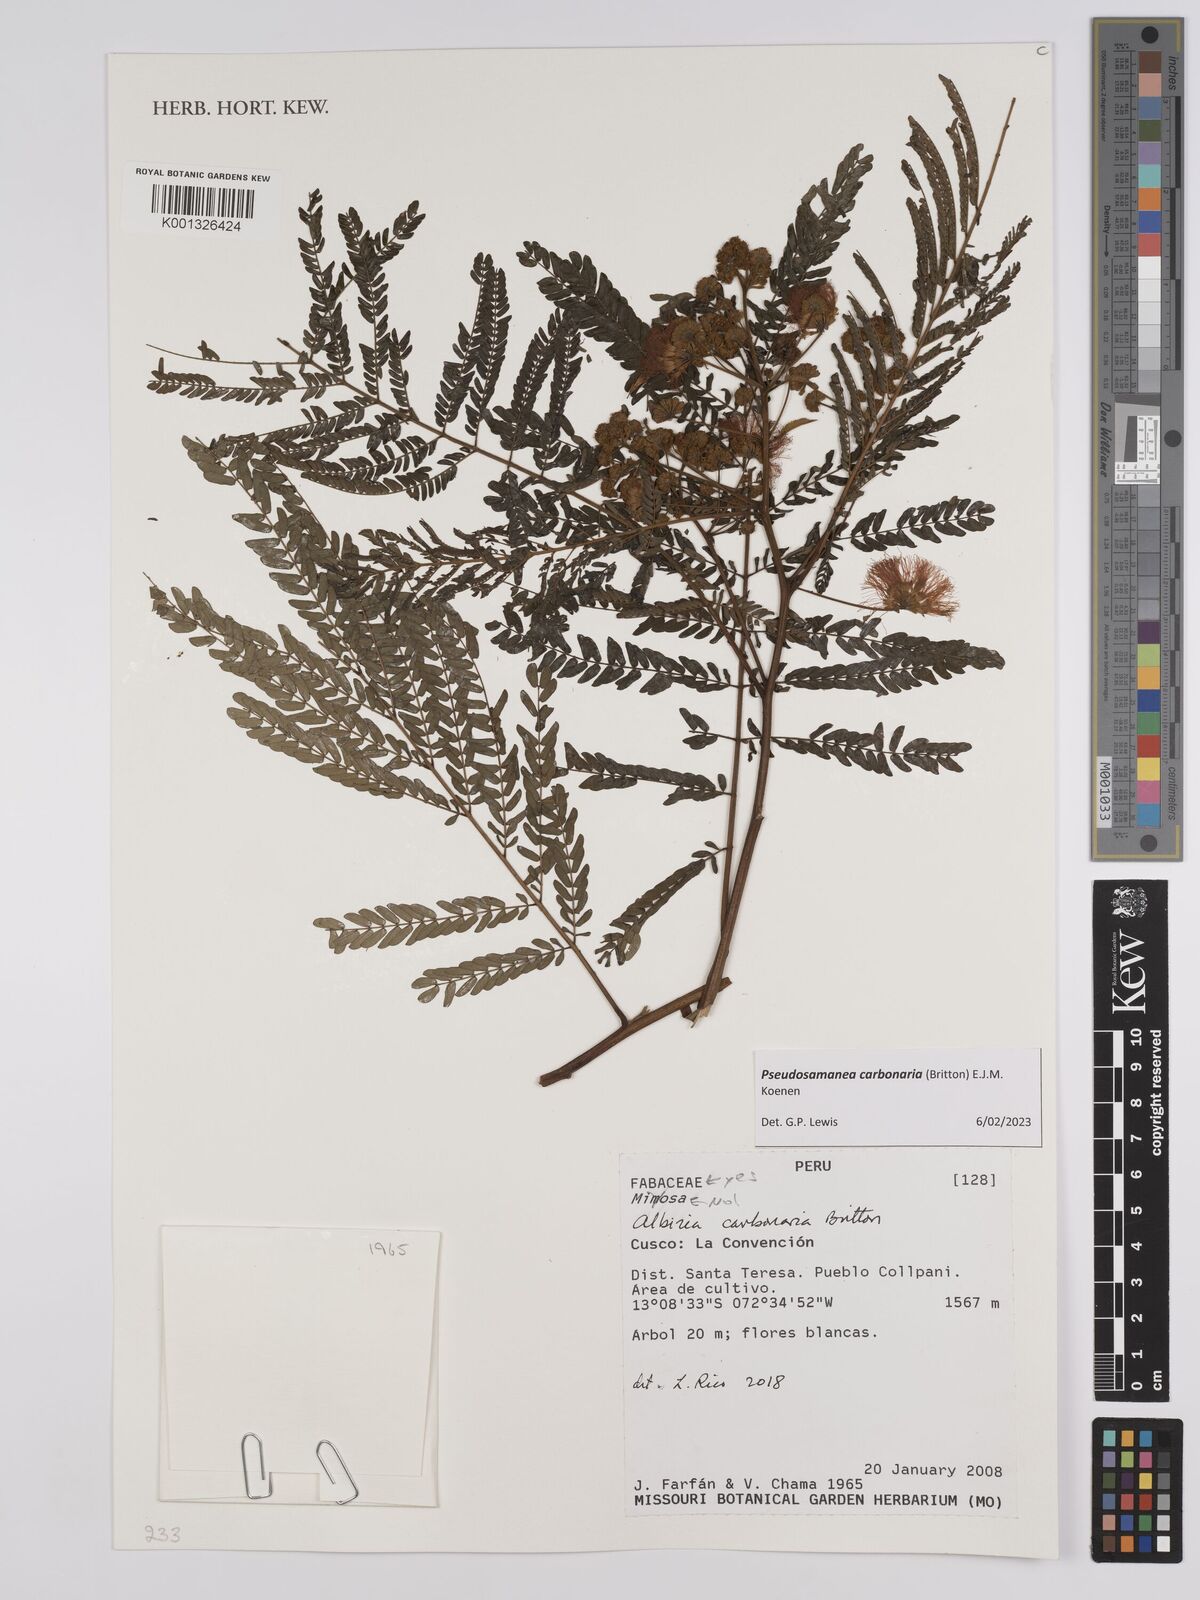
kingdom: Plantae
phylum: Tracheophyta
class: Magnoliopsida
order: Fabales
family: Fabaceae
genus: Albizia
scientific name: Albizia carbonaria
